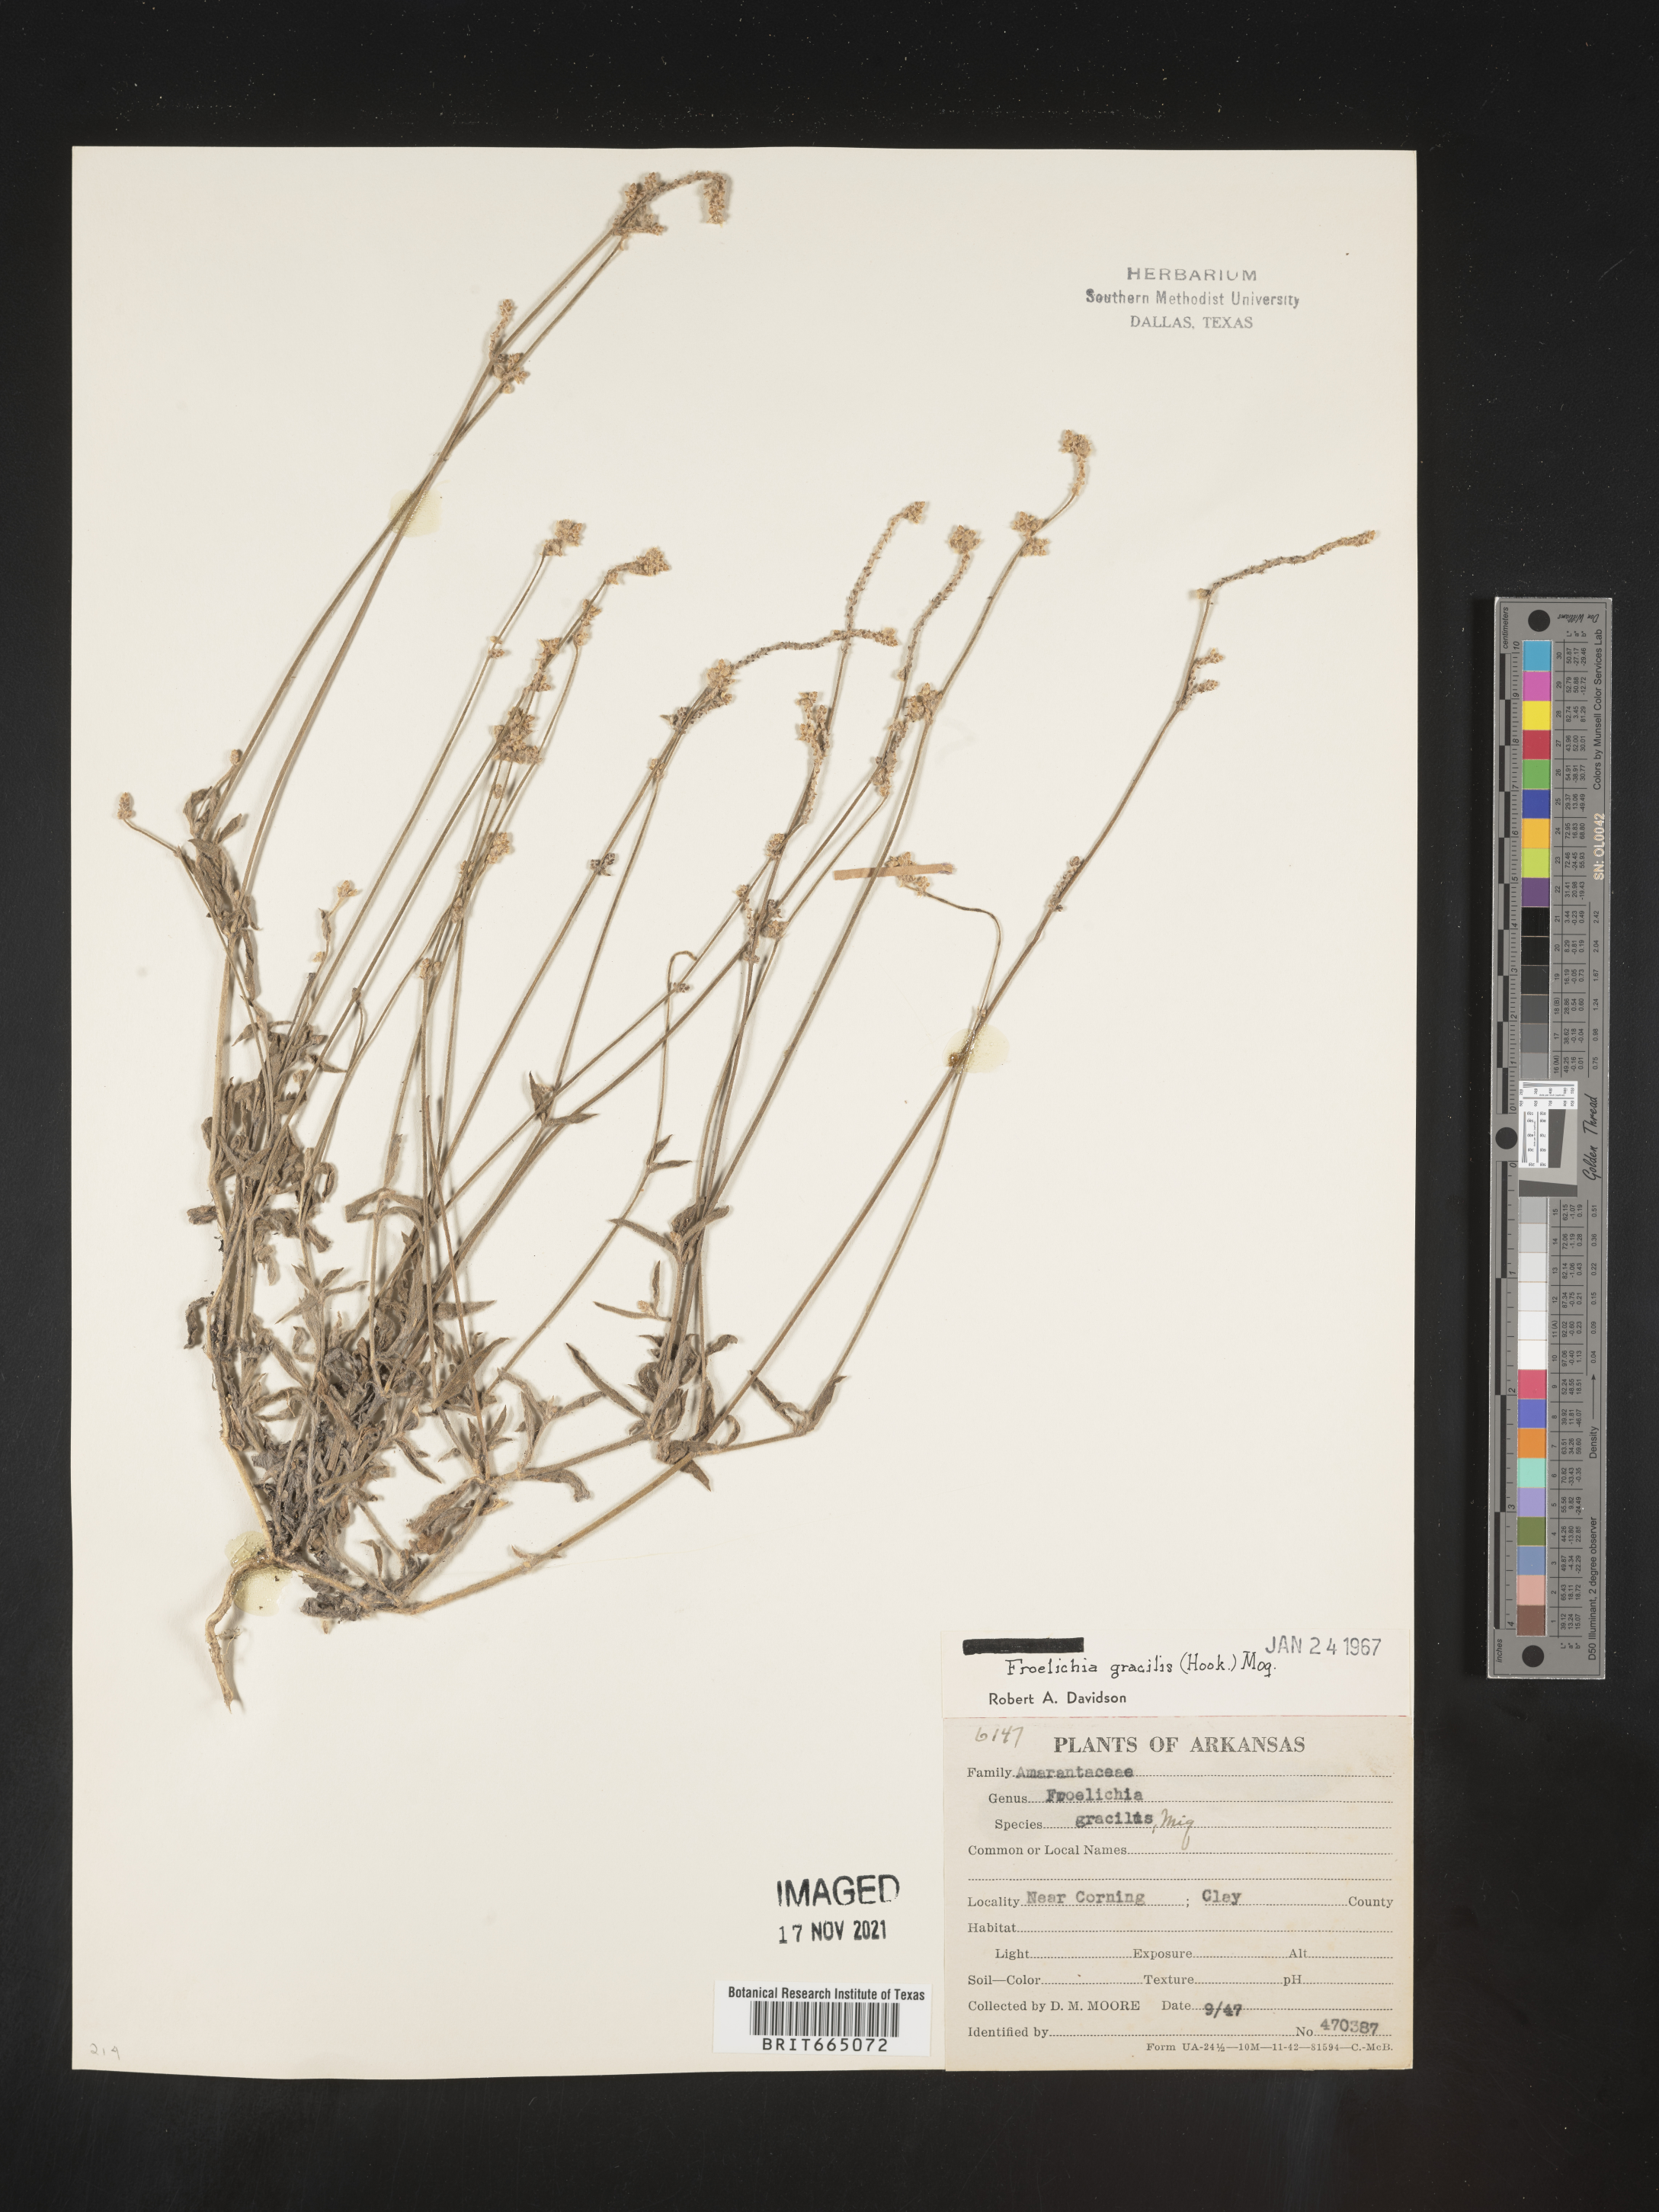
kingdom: Plantae
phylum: Tracheophyta
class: Magnoliopsida
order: Caryophyllales
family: Amaranthaceae
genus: Froelichia
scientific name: Froelichia gracilis
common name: Slender cottonweed
